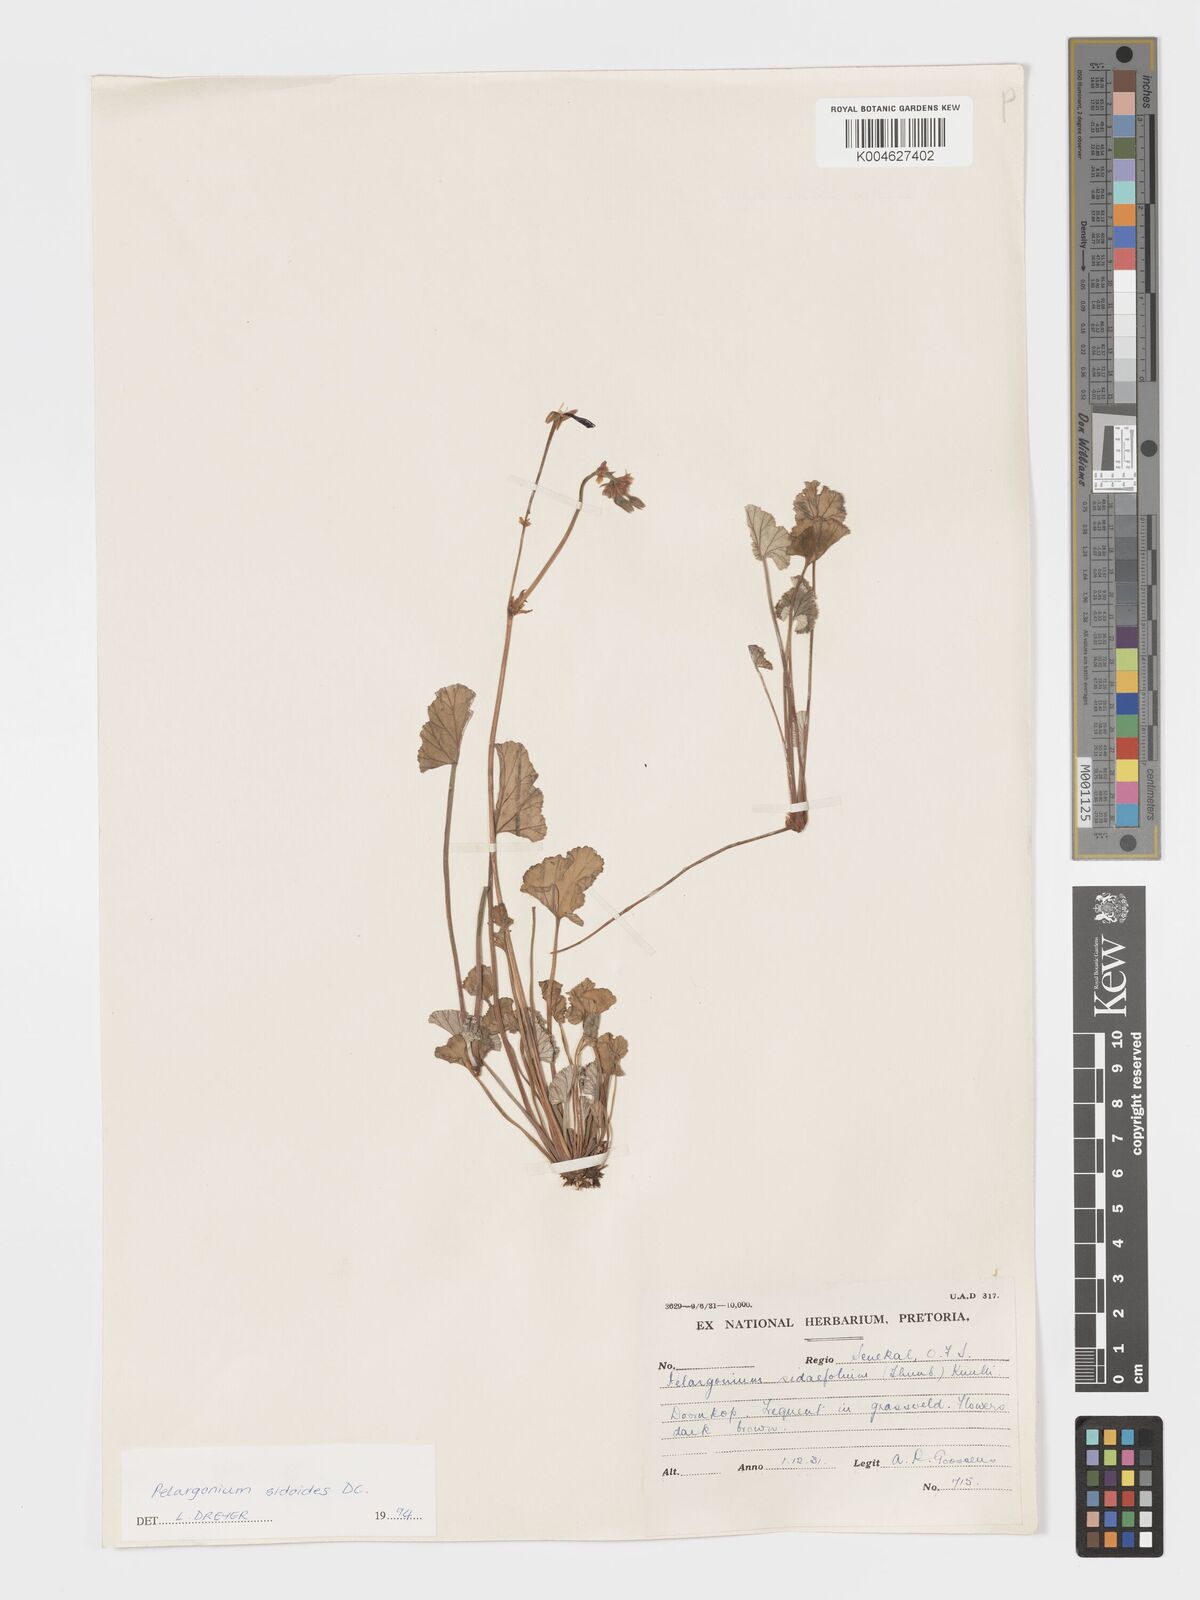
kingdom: Plantae
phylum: Tracheophyta
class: Magnoliopsida
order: Geraniales
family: Geraniaceae
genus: Pelargonium
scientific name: Pelargonium sidoides
